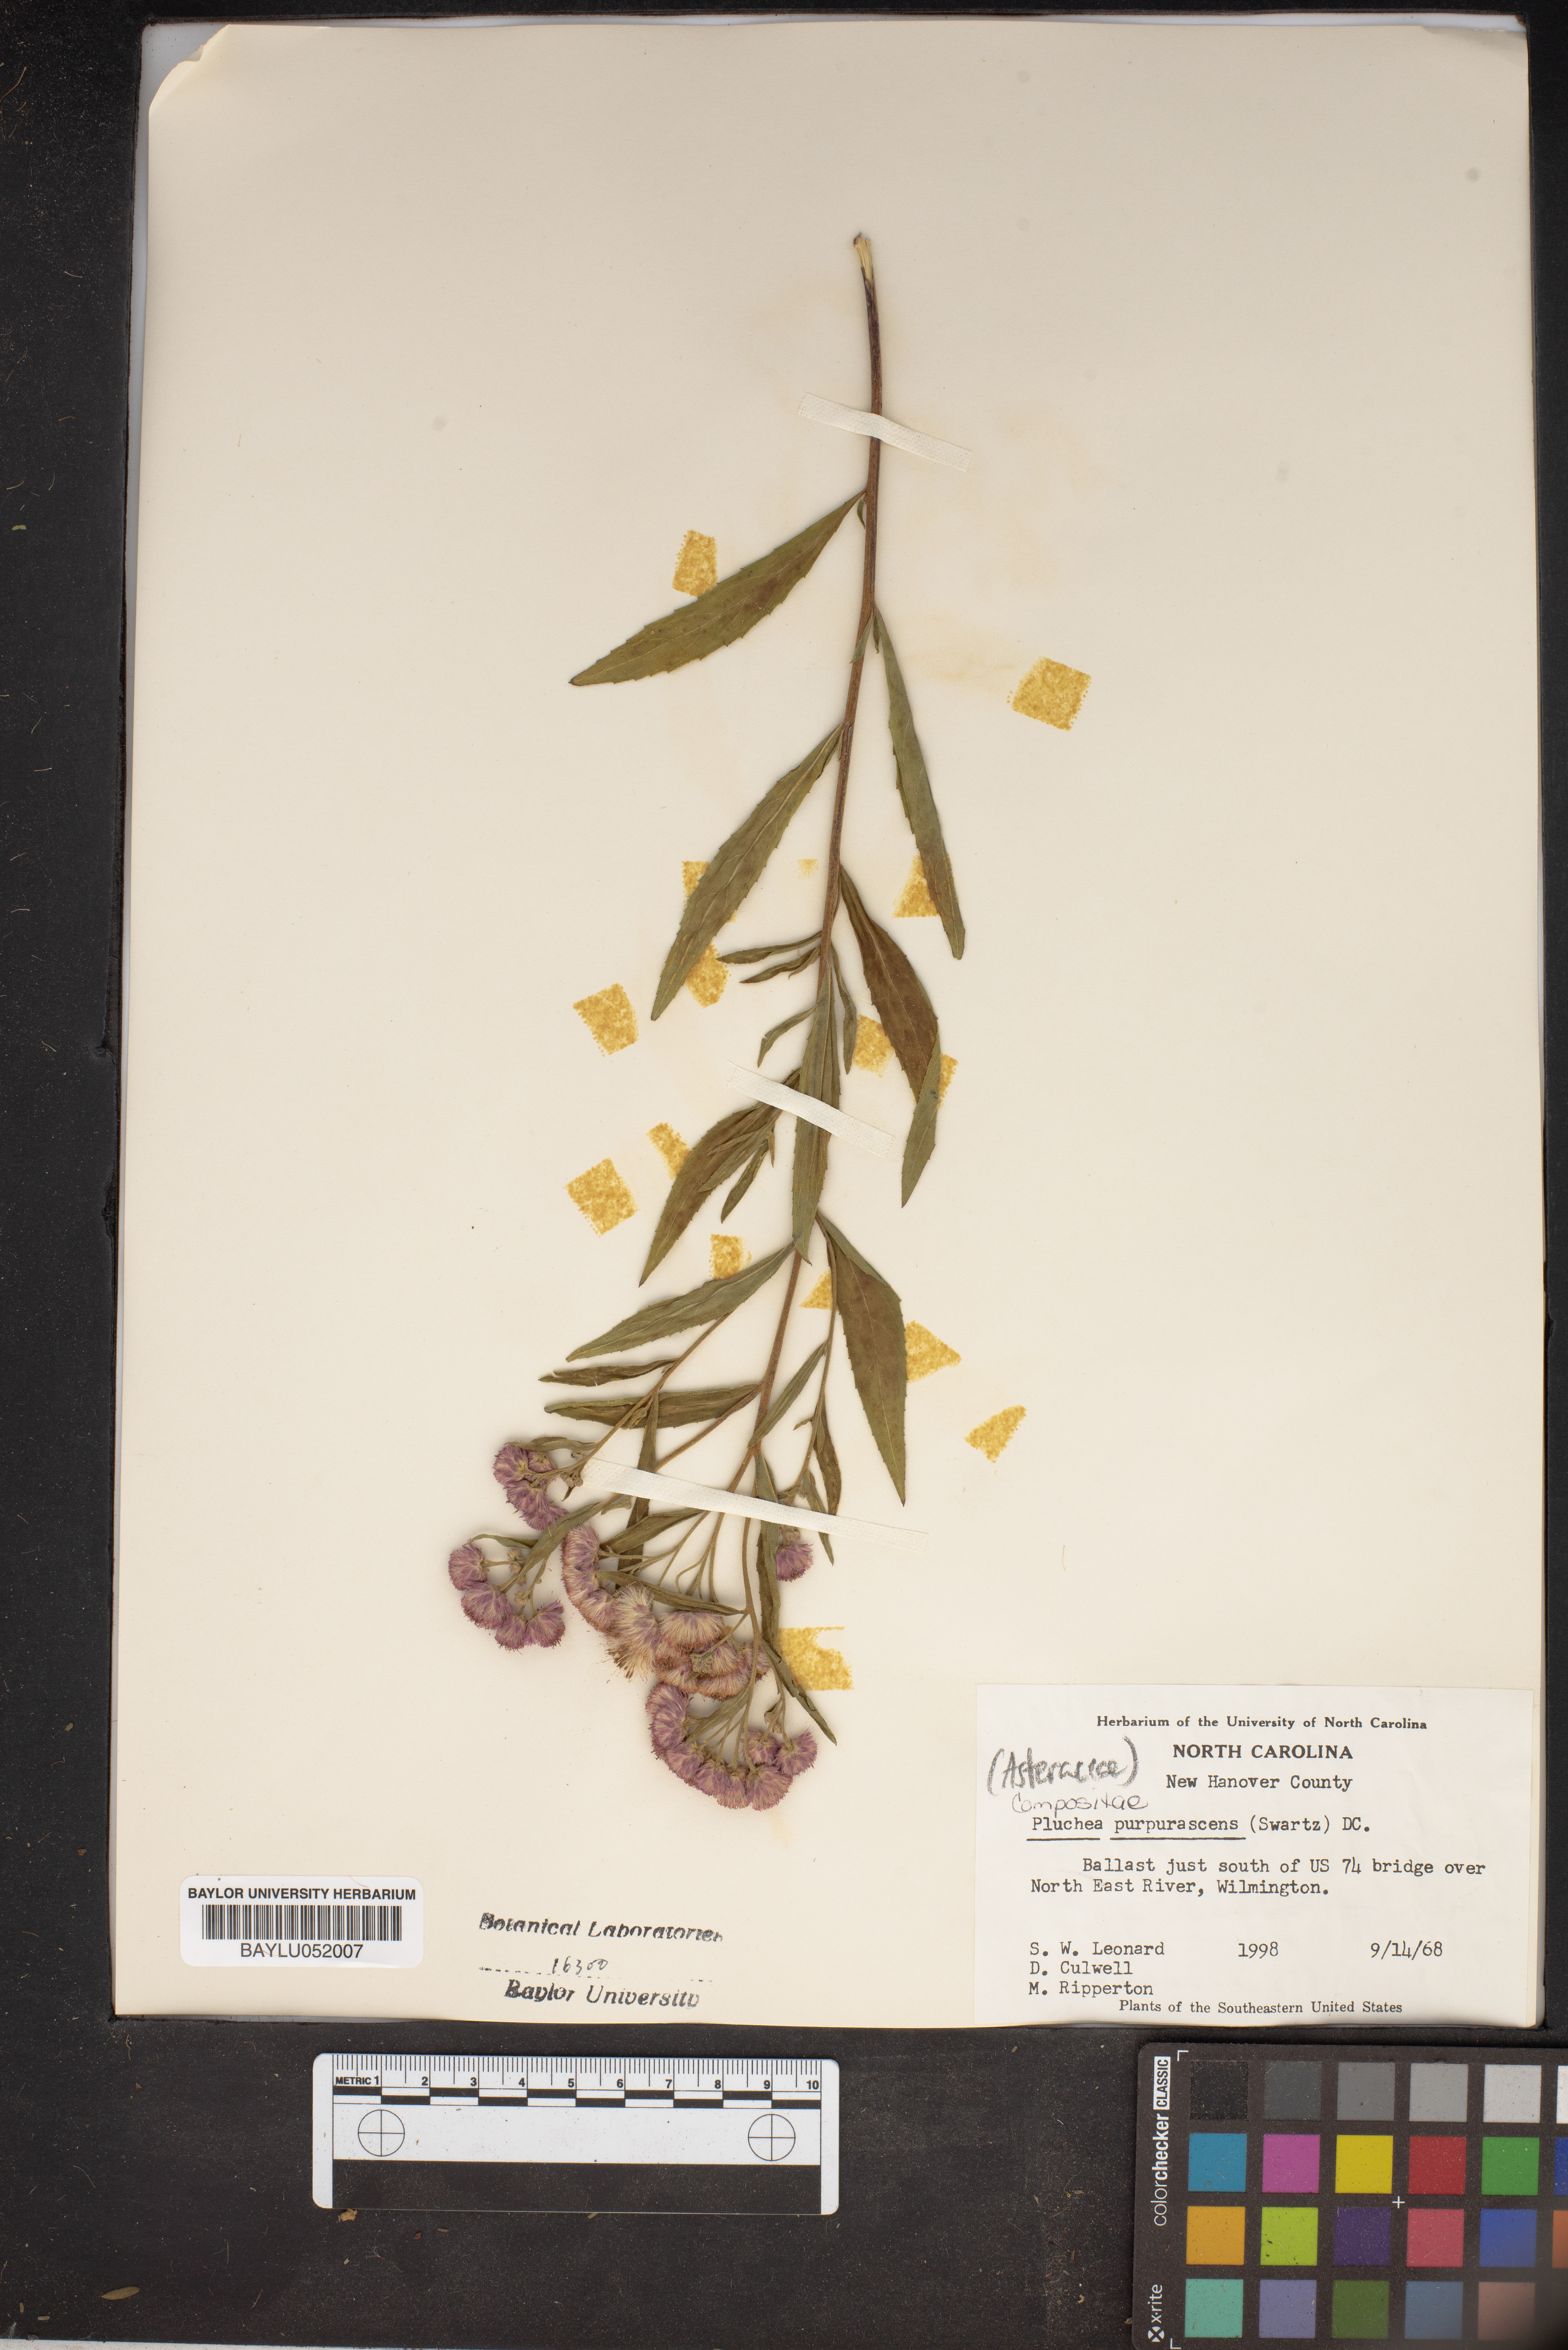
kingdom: Plantae
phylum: Tracheophyta
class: Magnoliopsida
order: Asterales
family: Asteraceae
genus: Pluchea
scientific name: Pluchea odorata
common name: Saltmarsh fleabane
